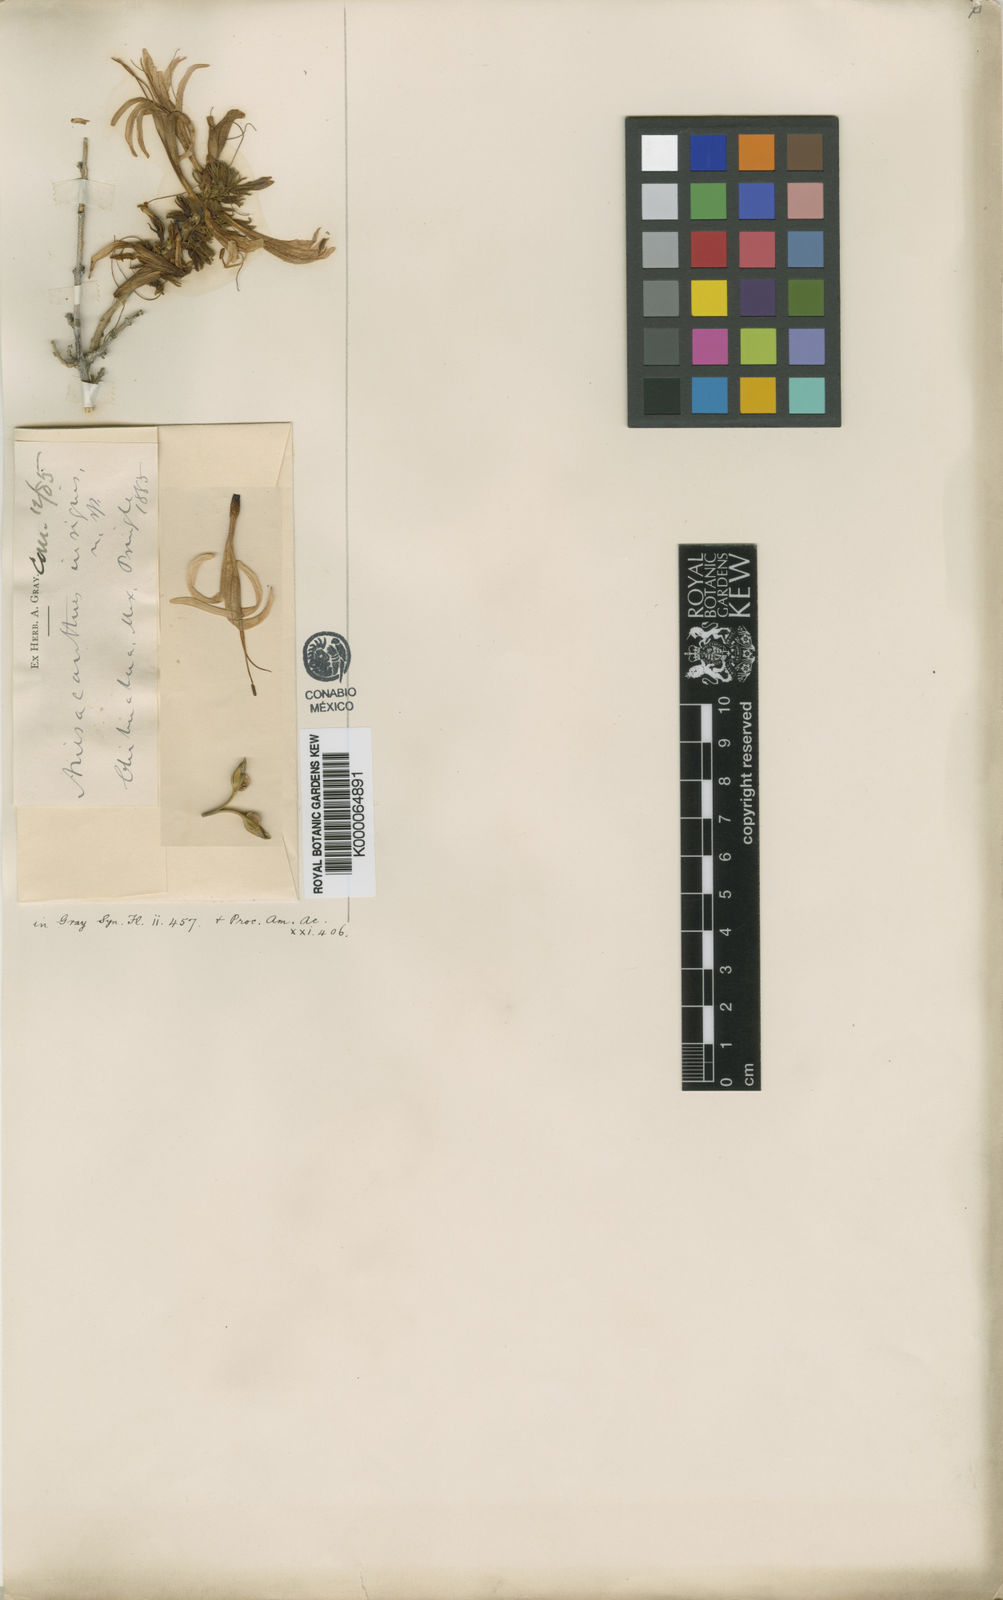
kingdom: Plantae
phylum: Tracheophyta
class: Magnoliopsida
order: Lamiales
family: Acanthaceae
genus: Anisacanthus
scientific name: Anisacanthus puberulus
